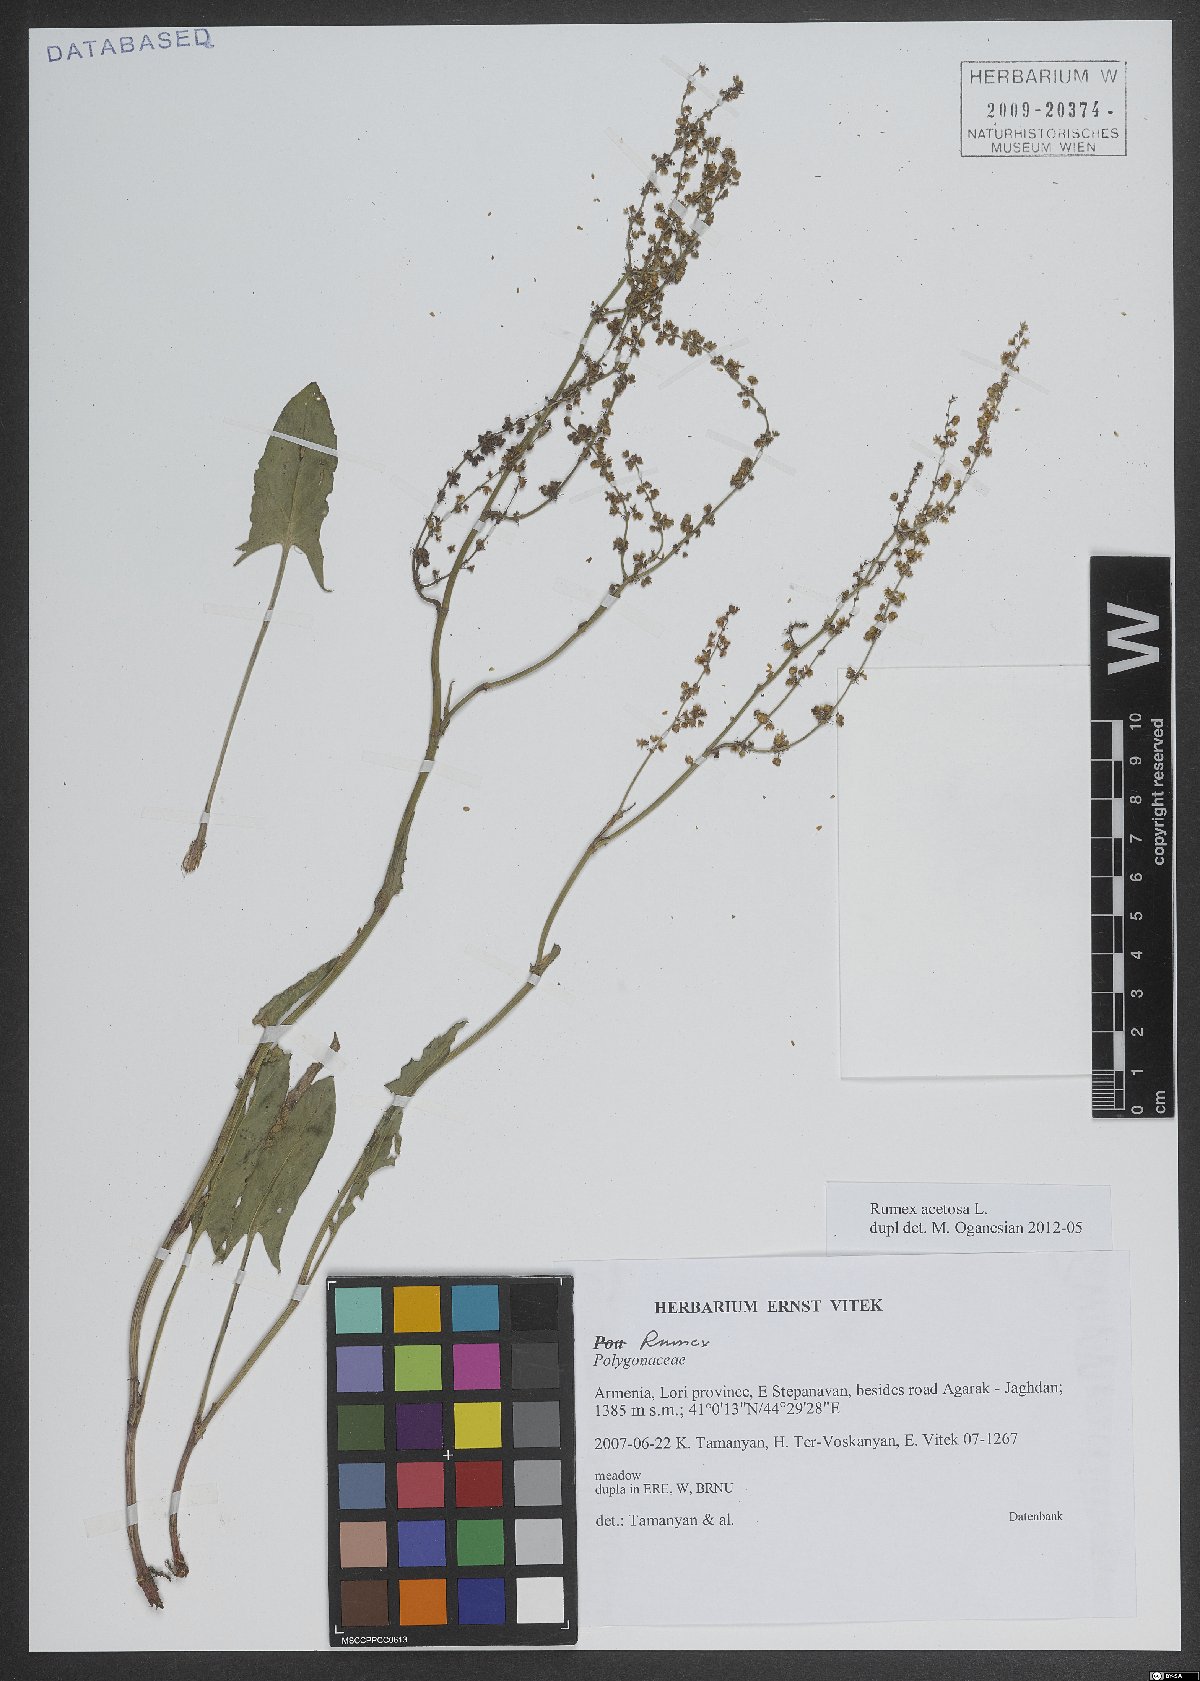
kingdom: Plantae
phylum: Tracheophyta
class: Magnoliopsida
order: Caryophyllales
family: Polygonaceae
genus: Rumex
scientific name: Rumex acetosa
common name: Garden sorrel
